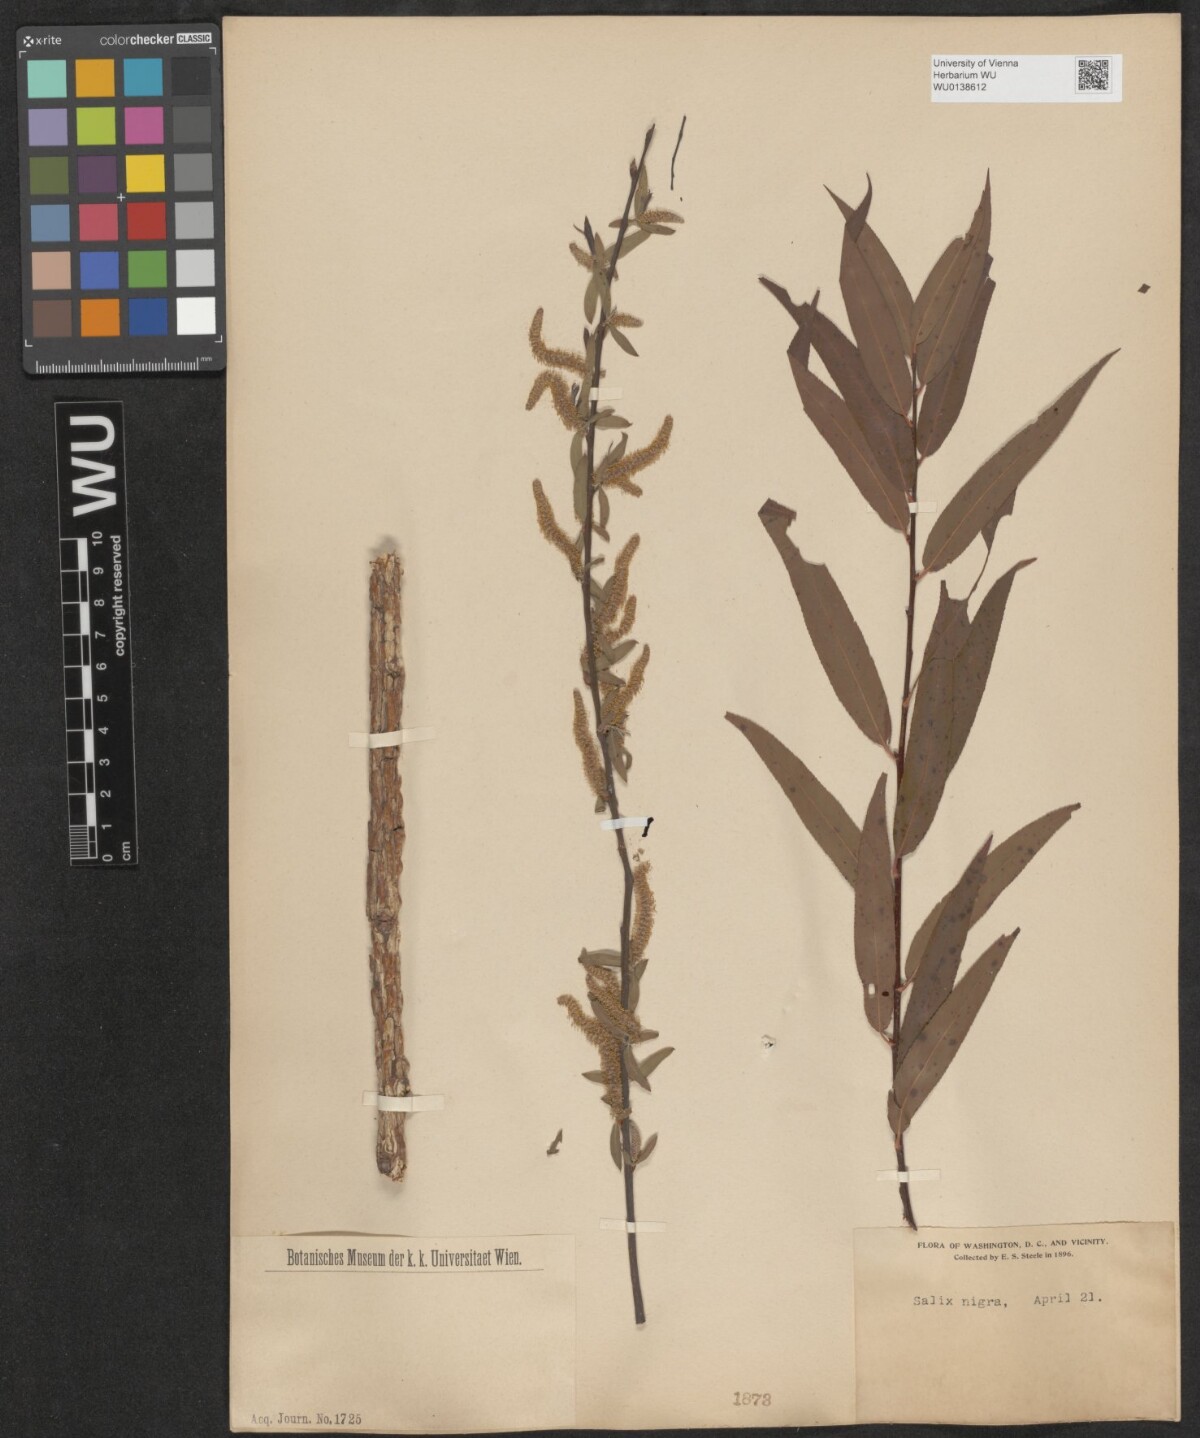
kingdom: Plantae
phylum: Tracheophyta
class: Magnoliopsida
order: Malpighiales
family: Salicaceae
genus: Salix
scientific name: Salix nigra
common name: Black willow
